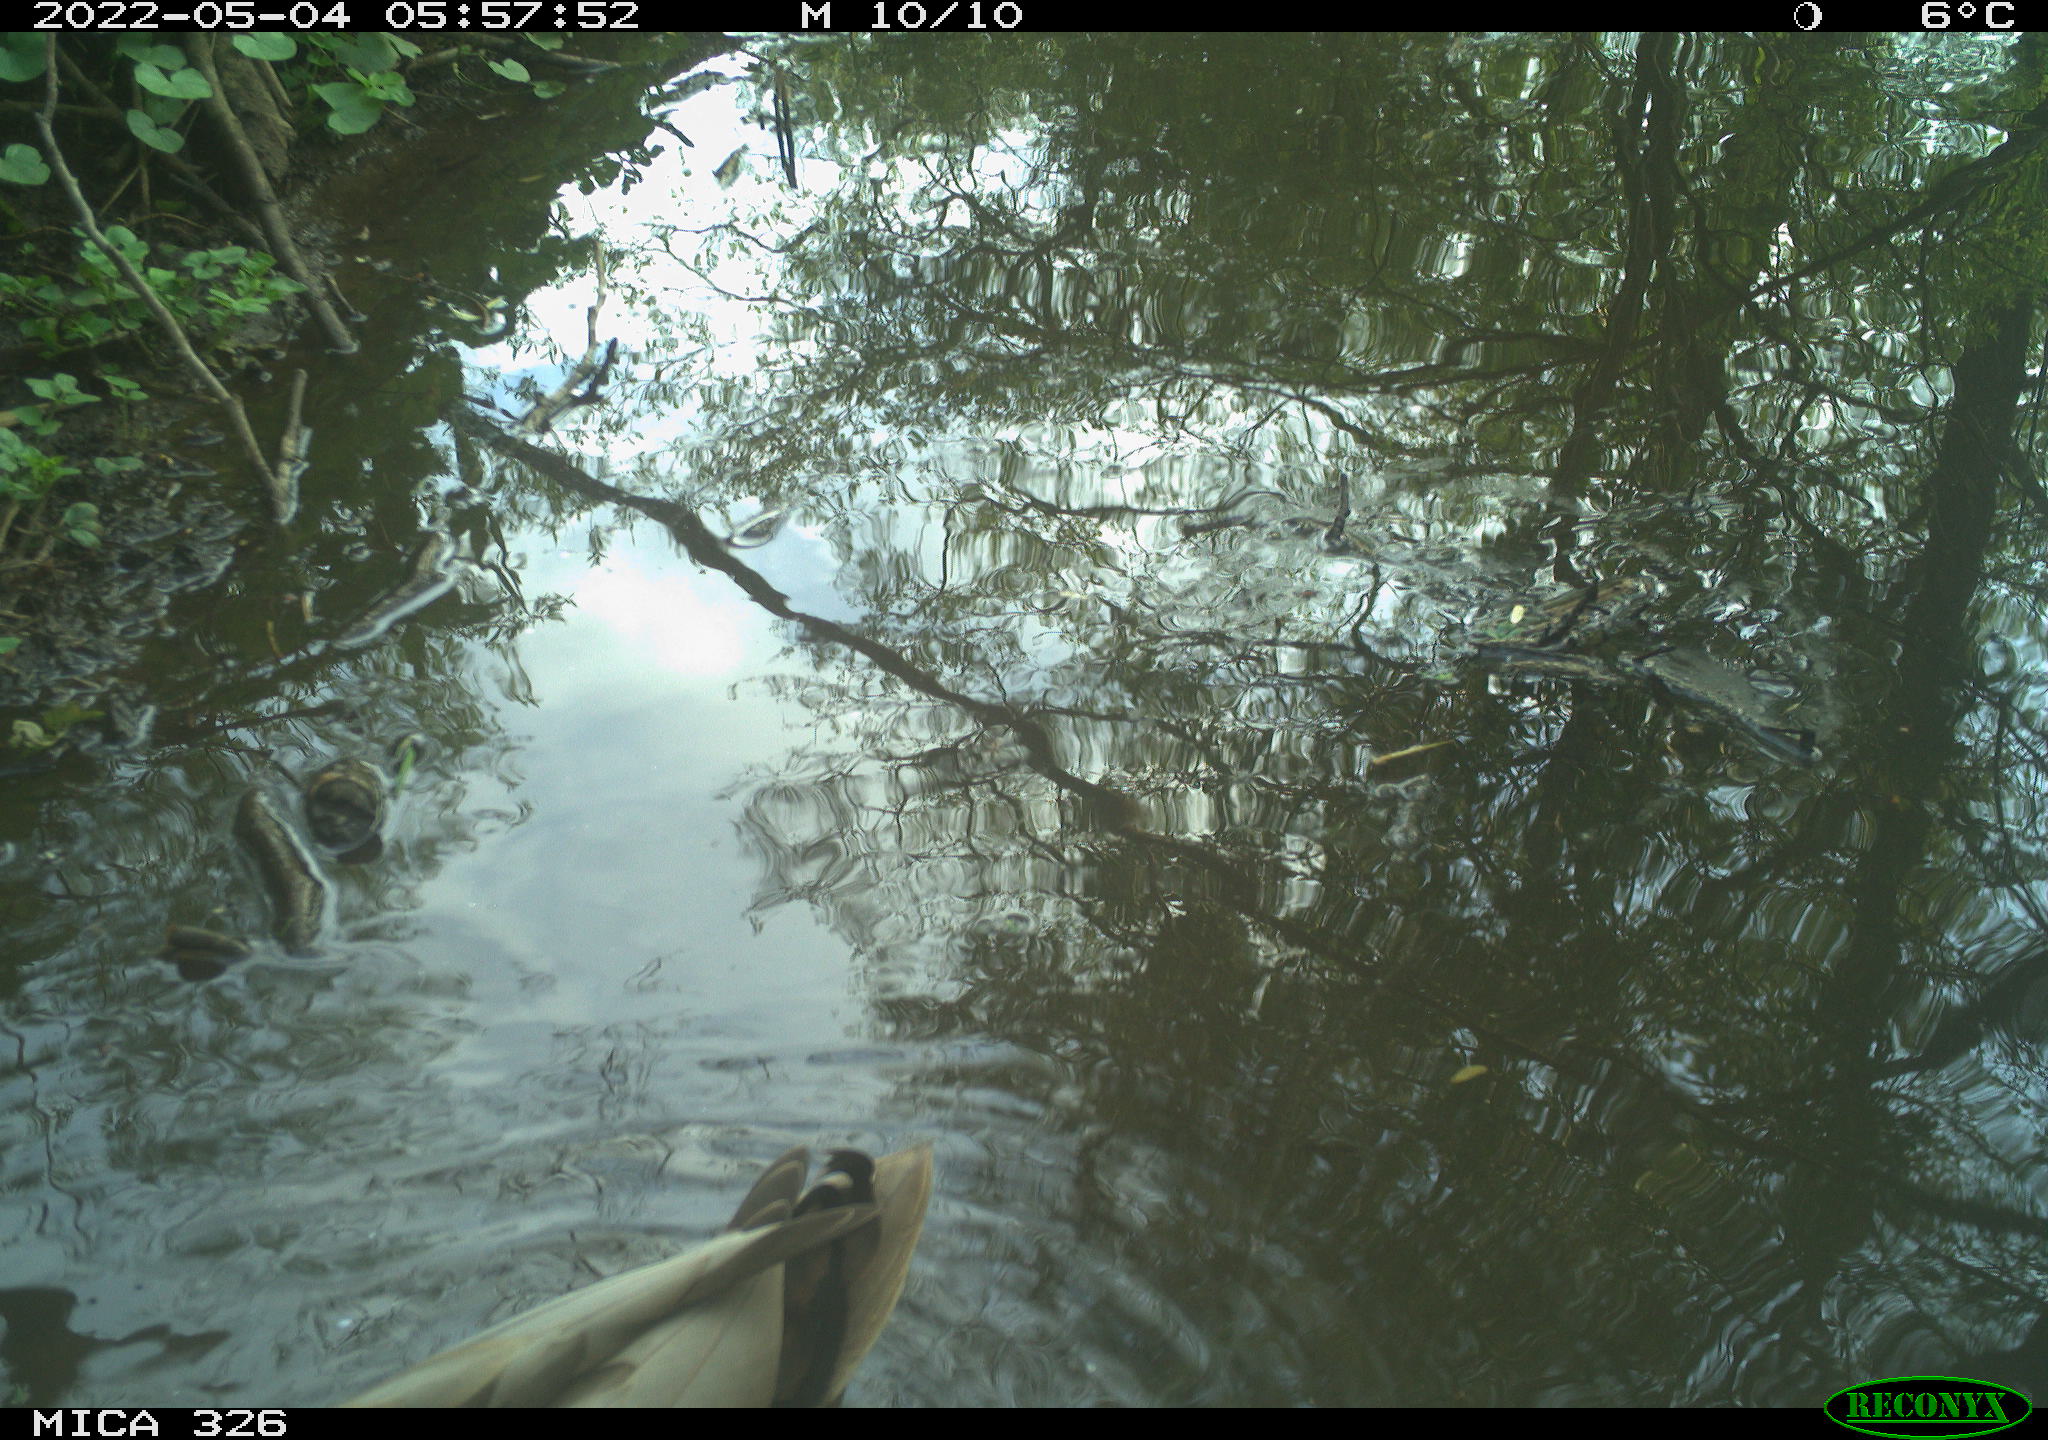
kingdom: Animalia
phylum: Chordata
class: Aves
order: Anseriformes
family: Anatidae
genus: Anas
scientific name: Anas platyrhynchos
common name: Mallard
